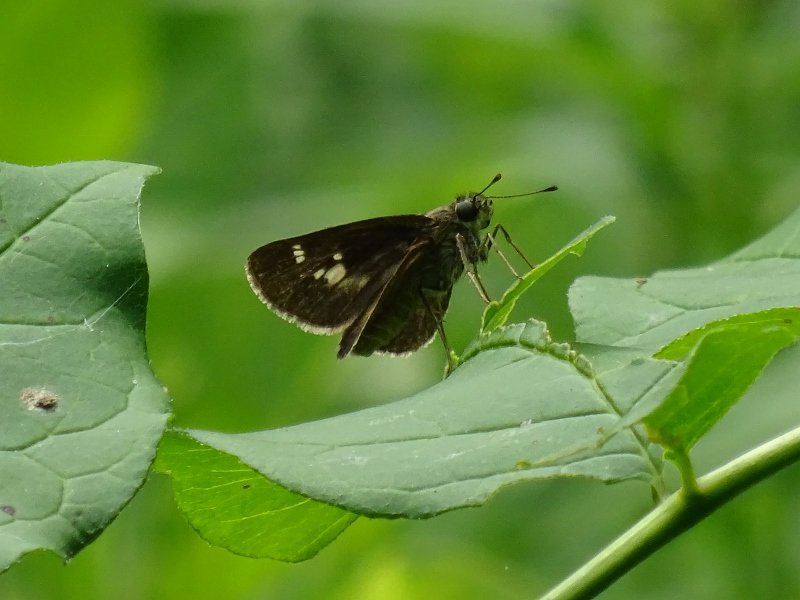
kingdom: Animalia
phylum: Arthropoda
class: Insecta
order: Lepidoptera
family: Hesperiidae
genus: Vernia
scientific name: Vernia verna
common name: Little Glassywing
